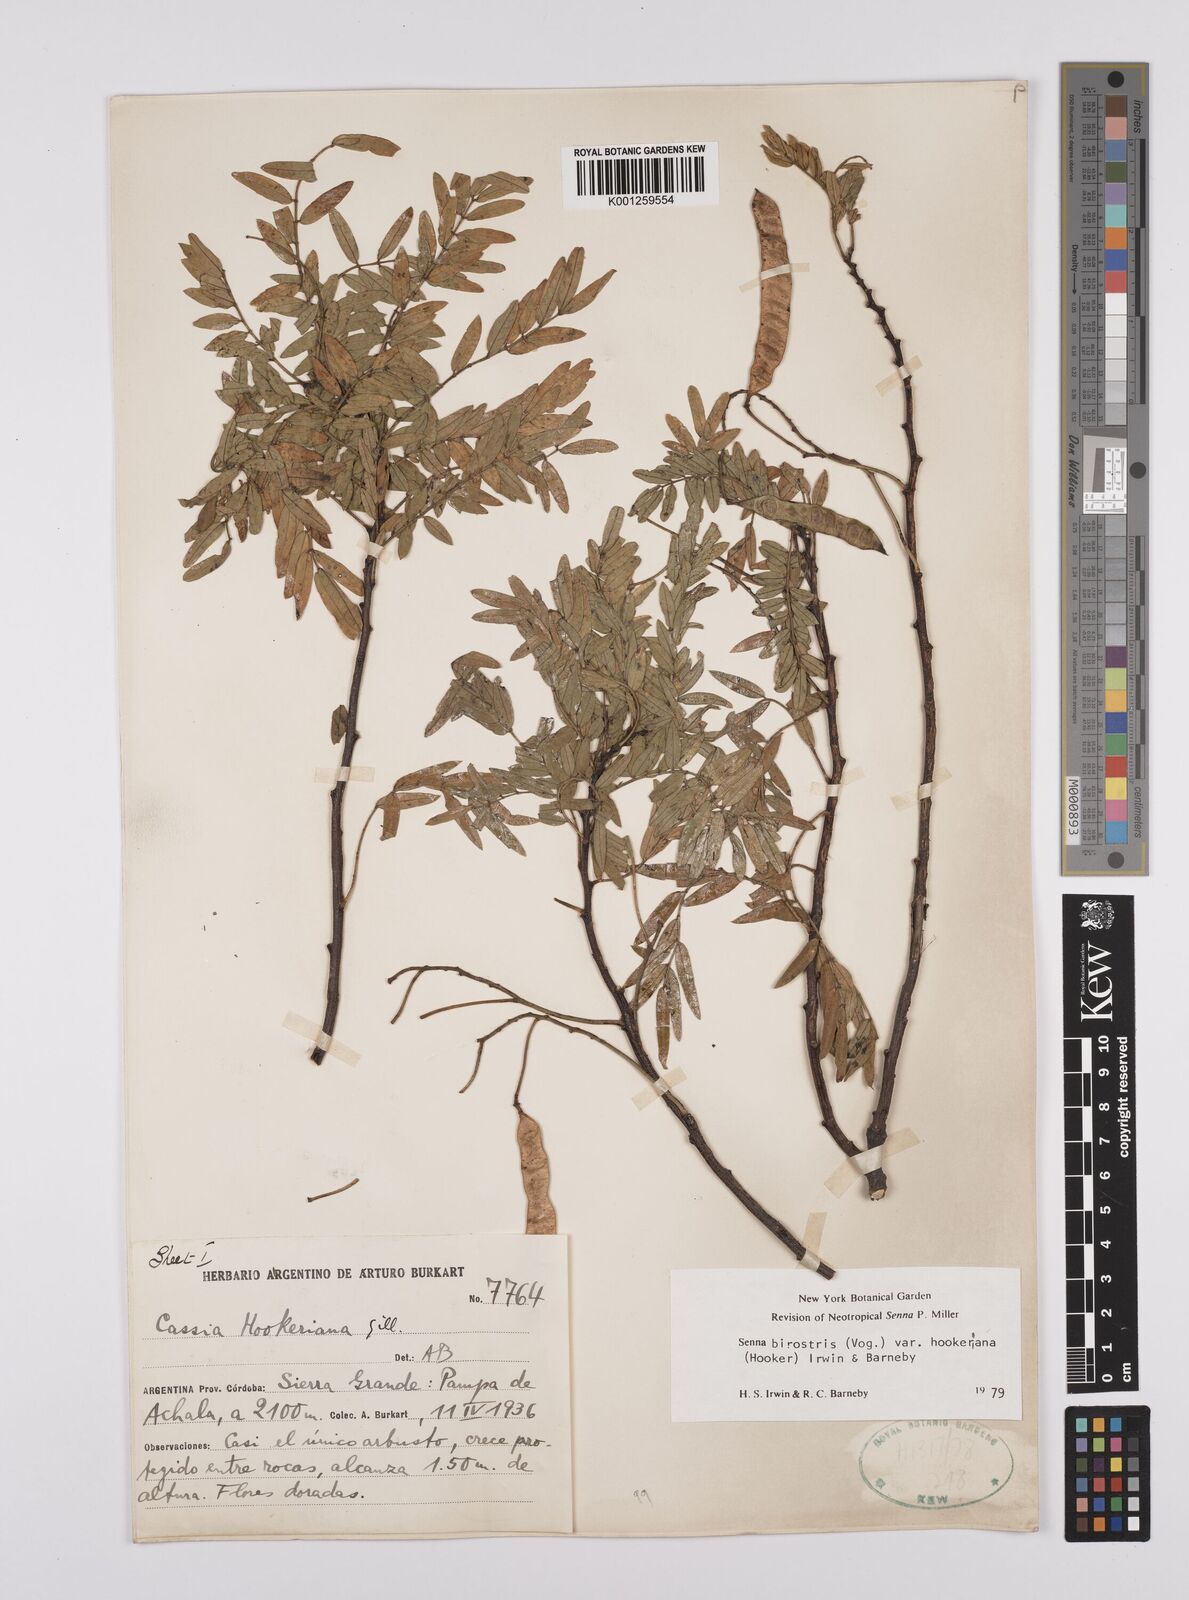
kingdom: Plantae
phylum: Tracheophyta
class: Magnoliopsida
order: Fabales
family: Fabaceae
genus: Senna
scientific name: Senna birostris
